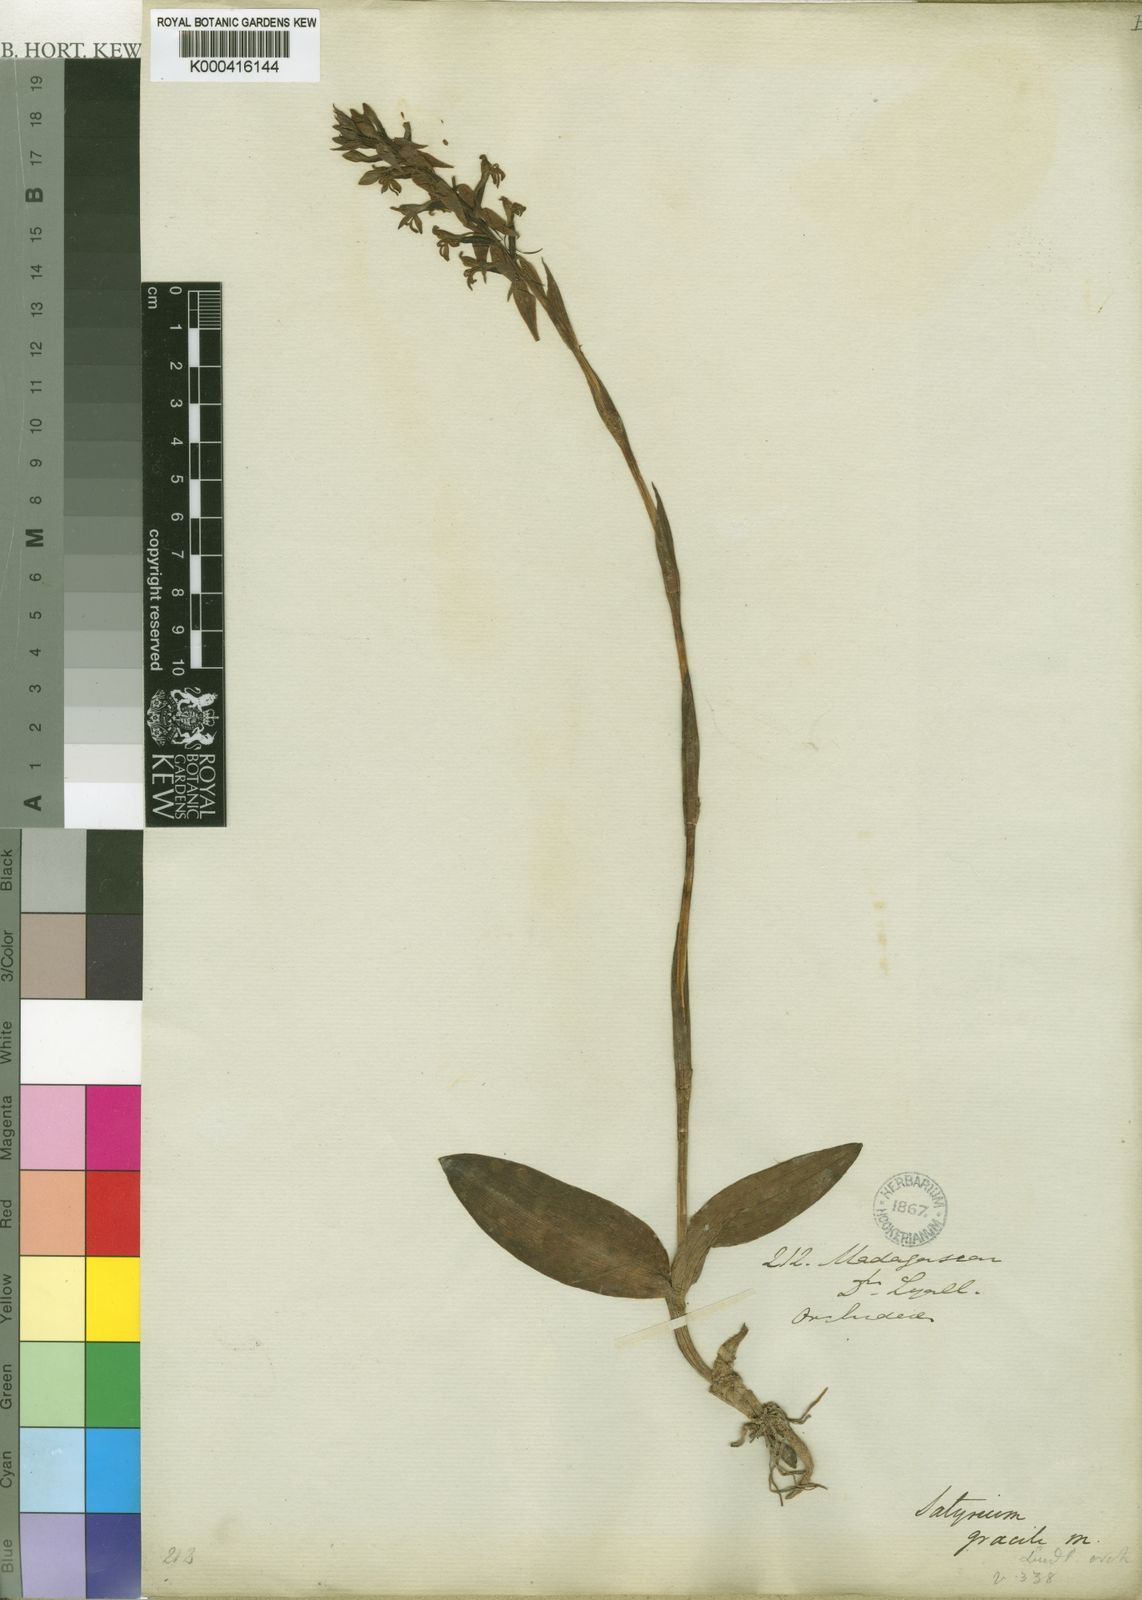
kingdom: Plantae
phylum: Tracheophyta
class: Liliopsida
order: Asparagales
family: Orchidaceae
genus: Satyrium
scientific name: Satyrium amoenum
